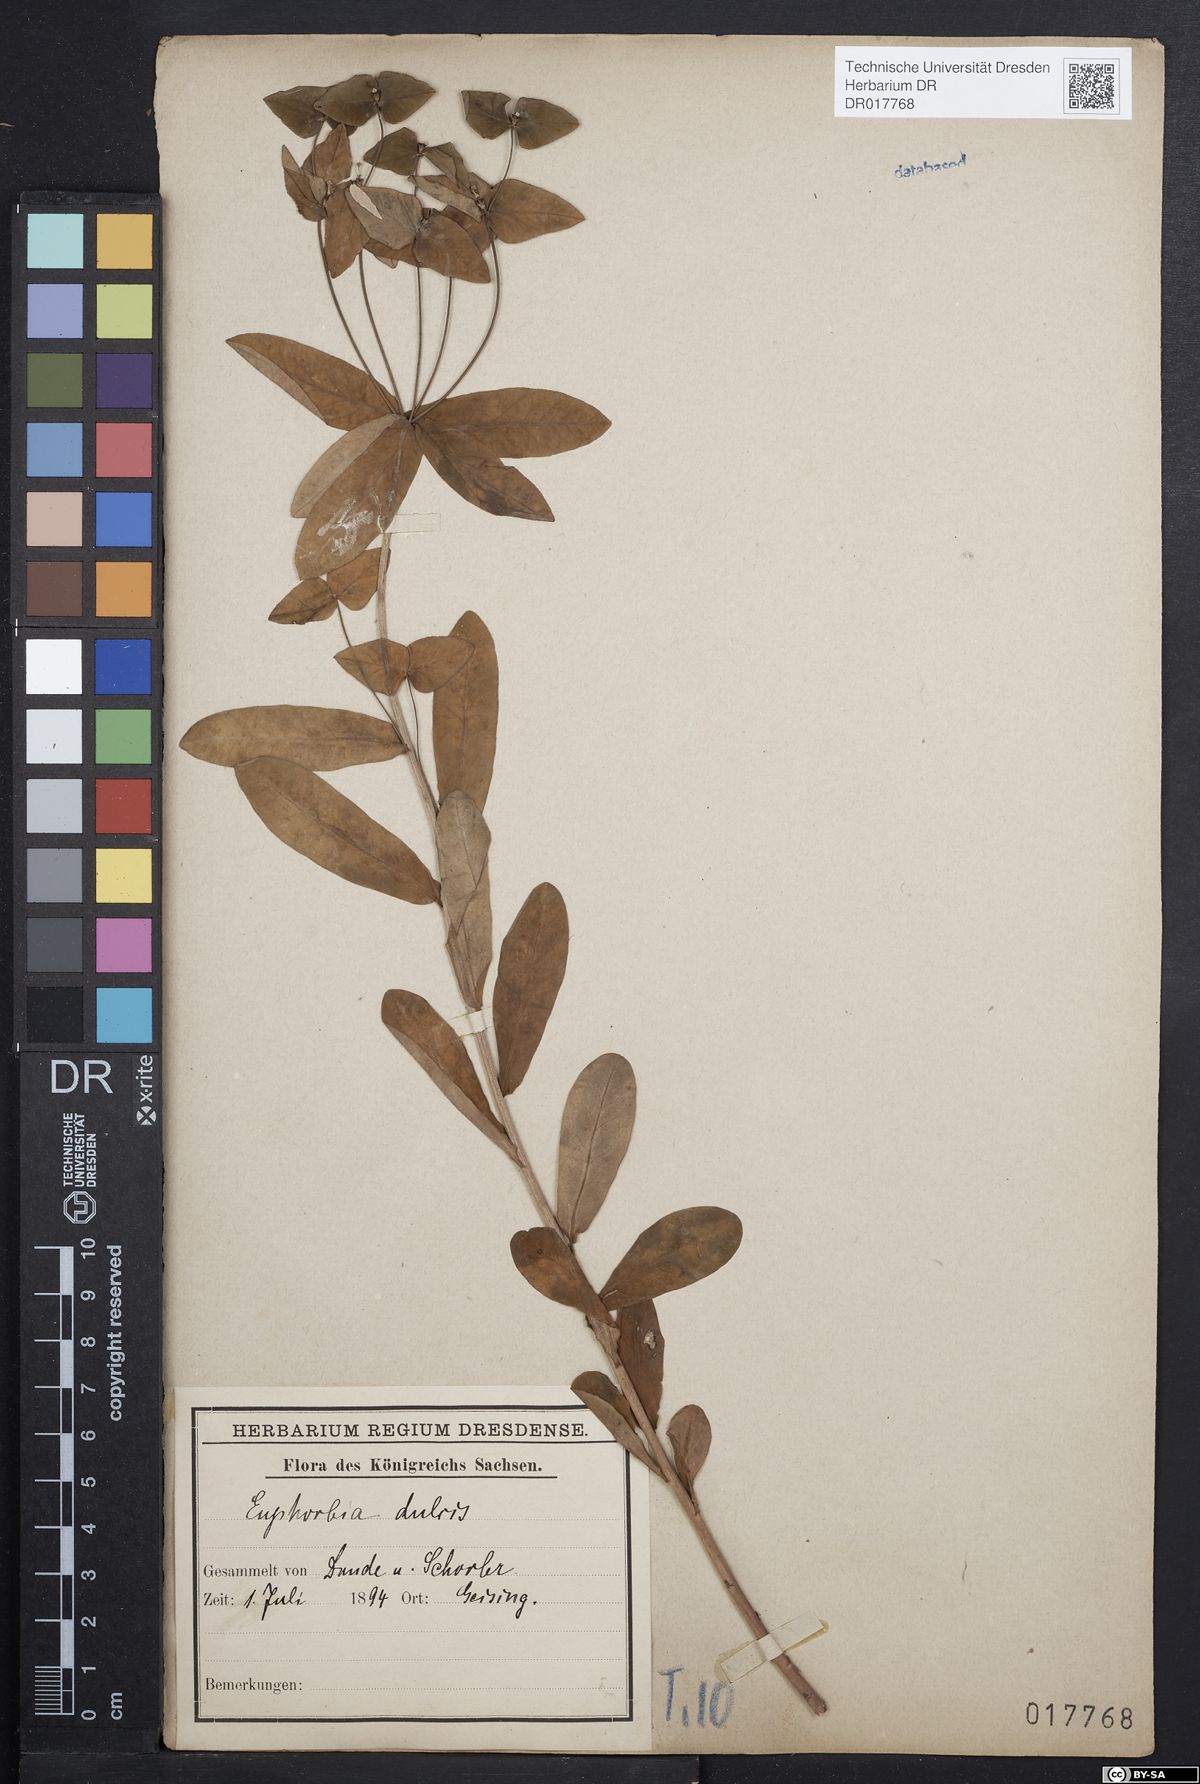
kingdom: Plantae
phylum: Tracheophyta
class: Magnoliopsida
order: Malpighiales
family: Euphorbiaceae
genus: Euphorbia
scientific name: Euphorbia dulcis
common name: Sweet spurge
